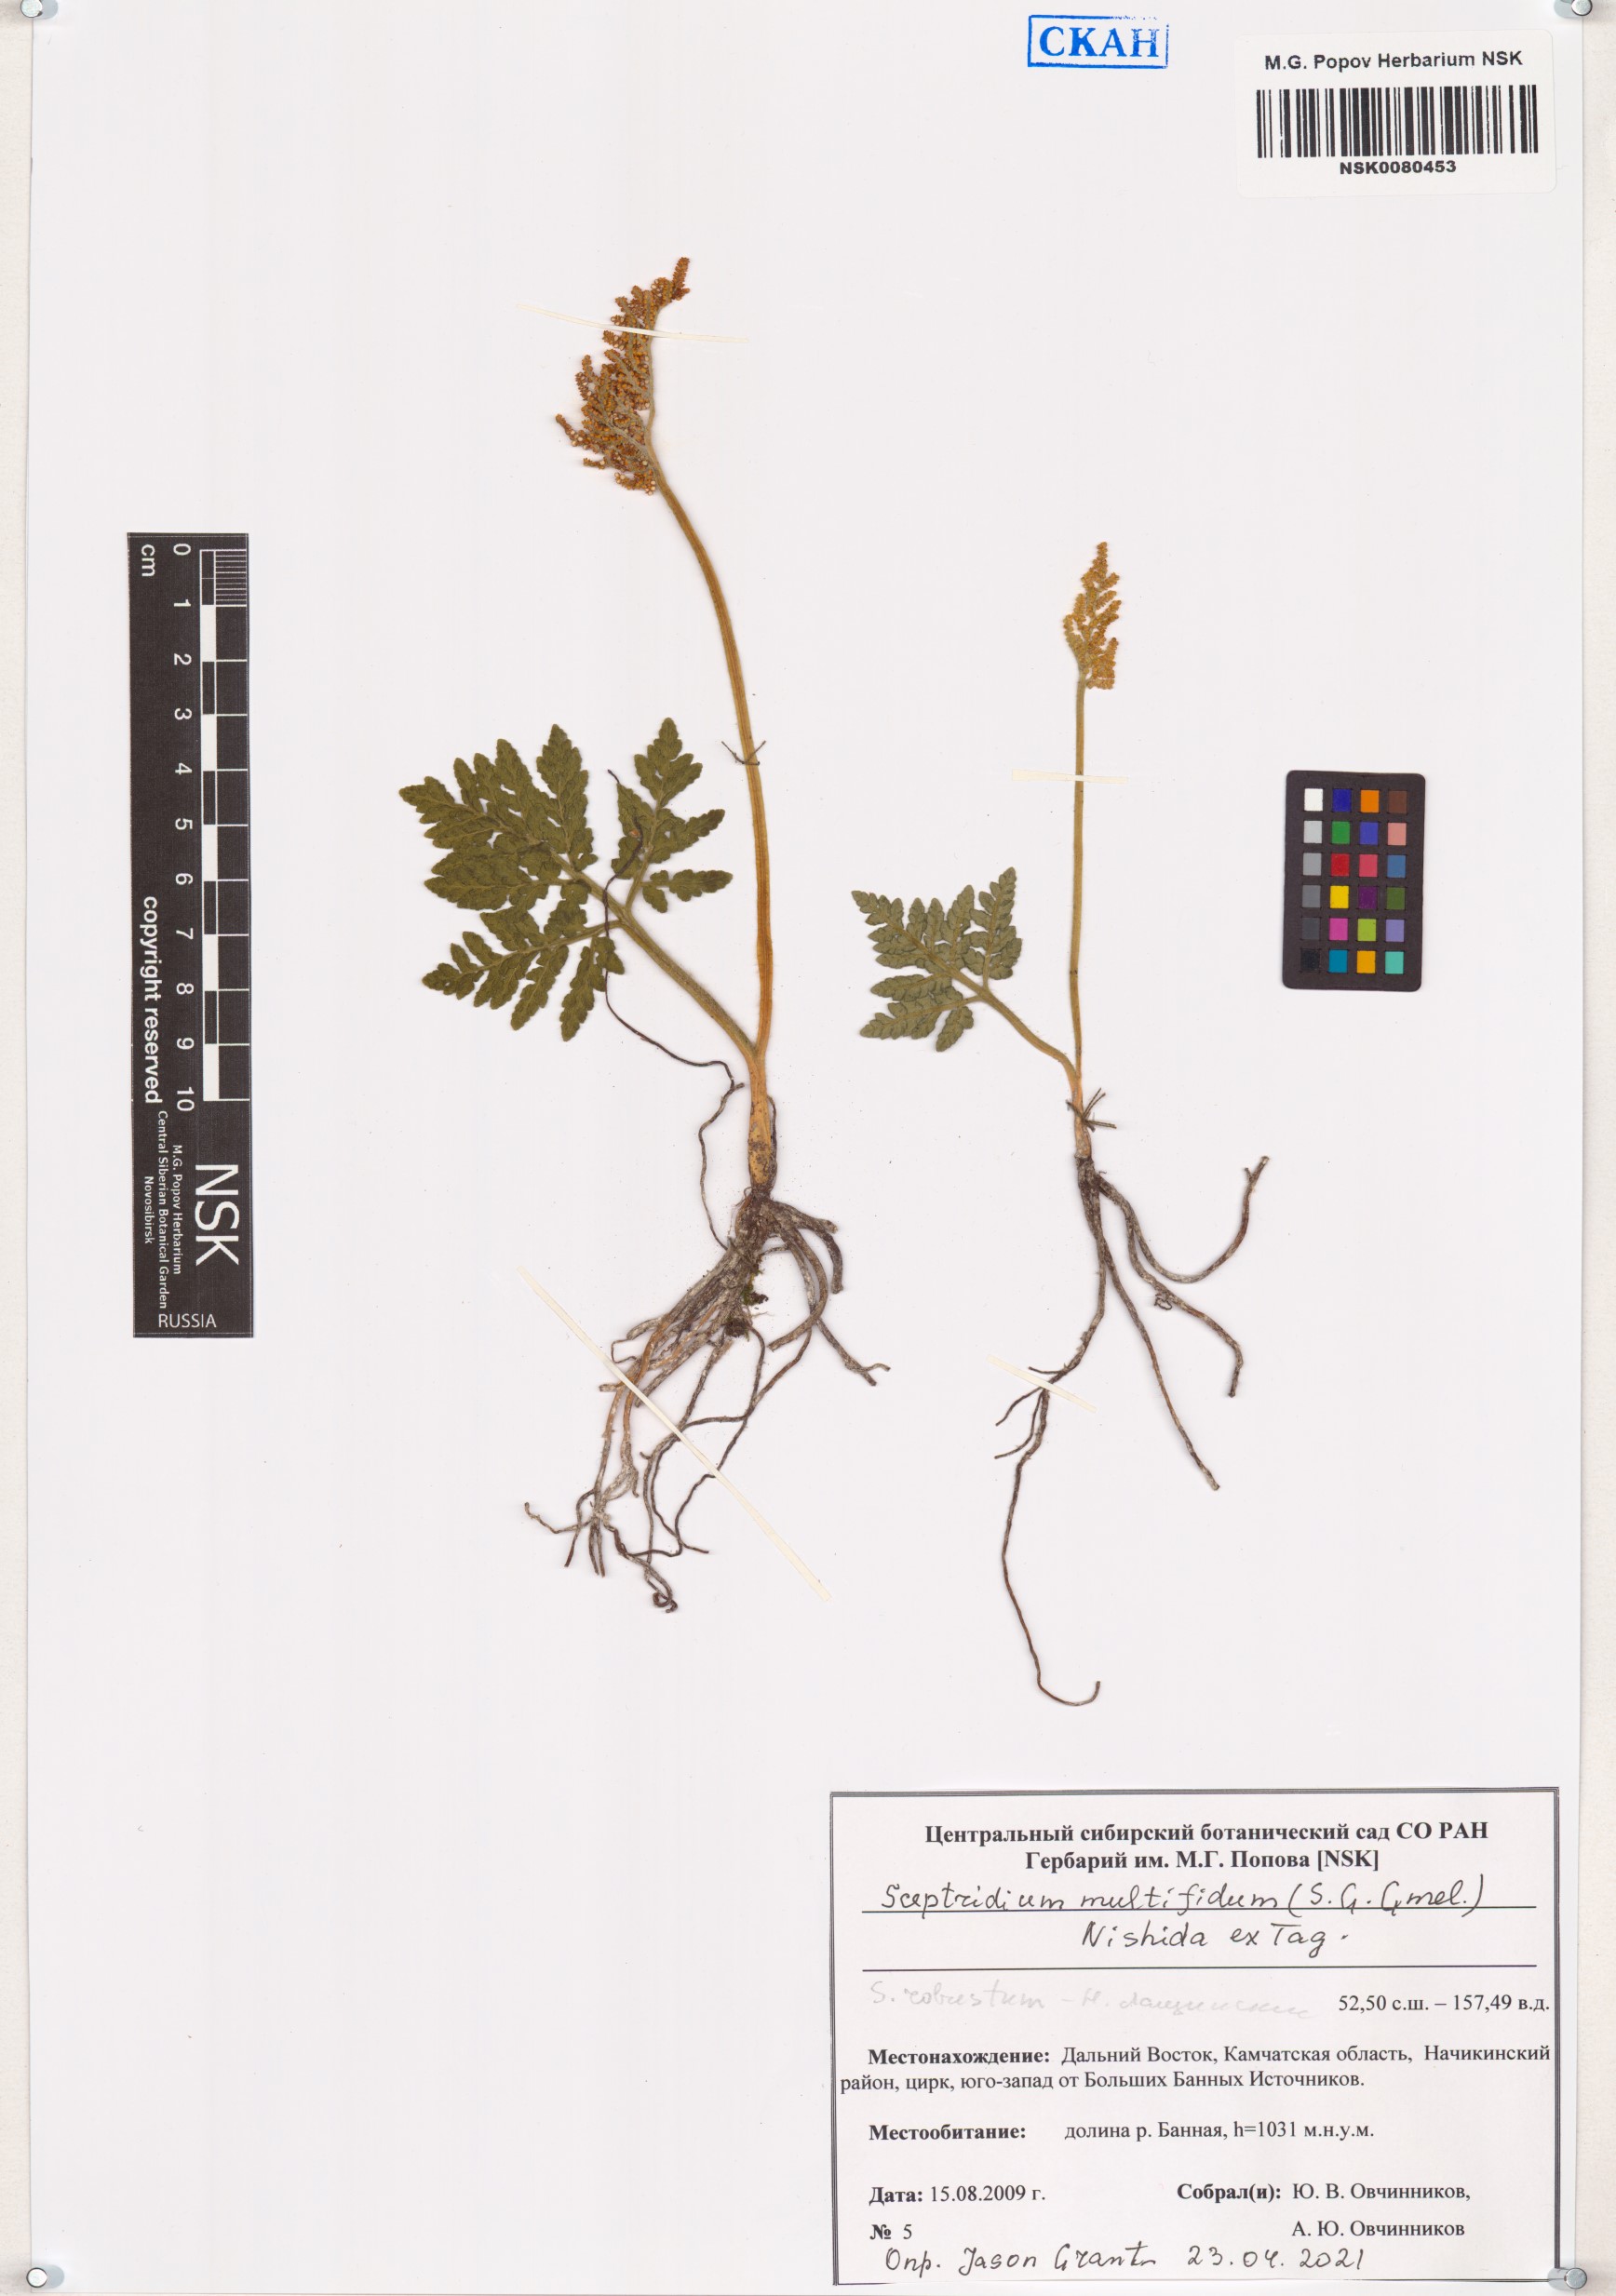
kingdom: Plantae
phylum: Tracheophyta
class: Polypodiopsida
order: Ophioglossales
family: Ophioglossaceae
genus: Sceptridium
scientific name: Sceptridium multifidum
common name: Leathery grape fern
